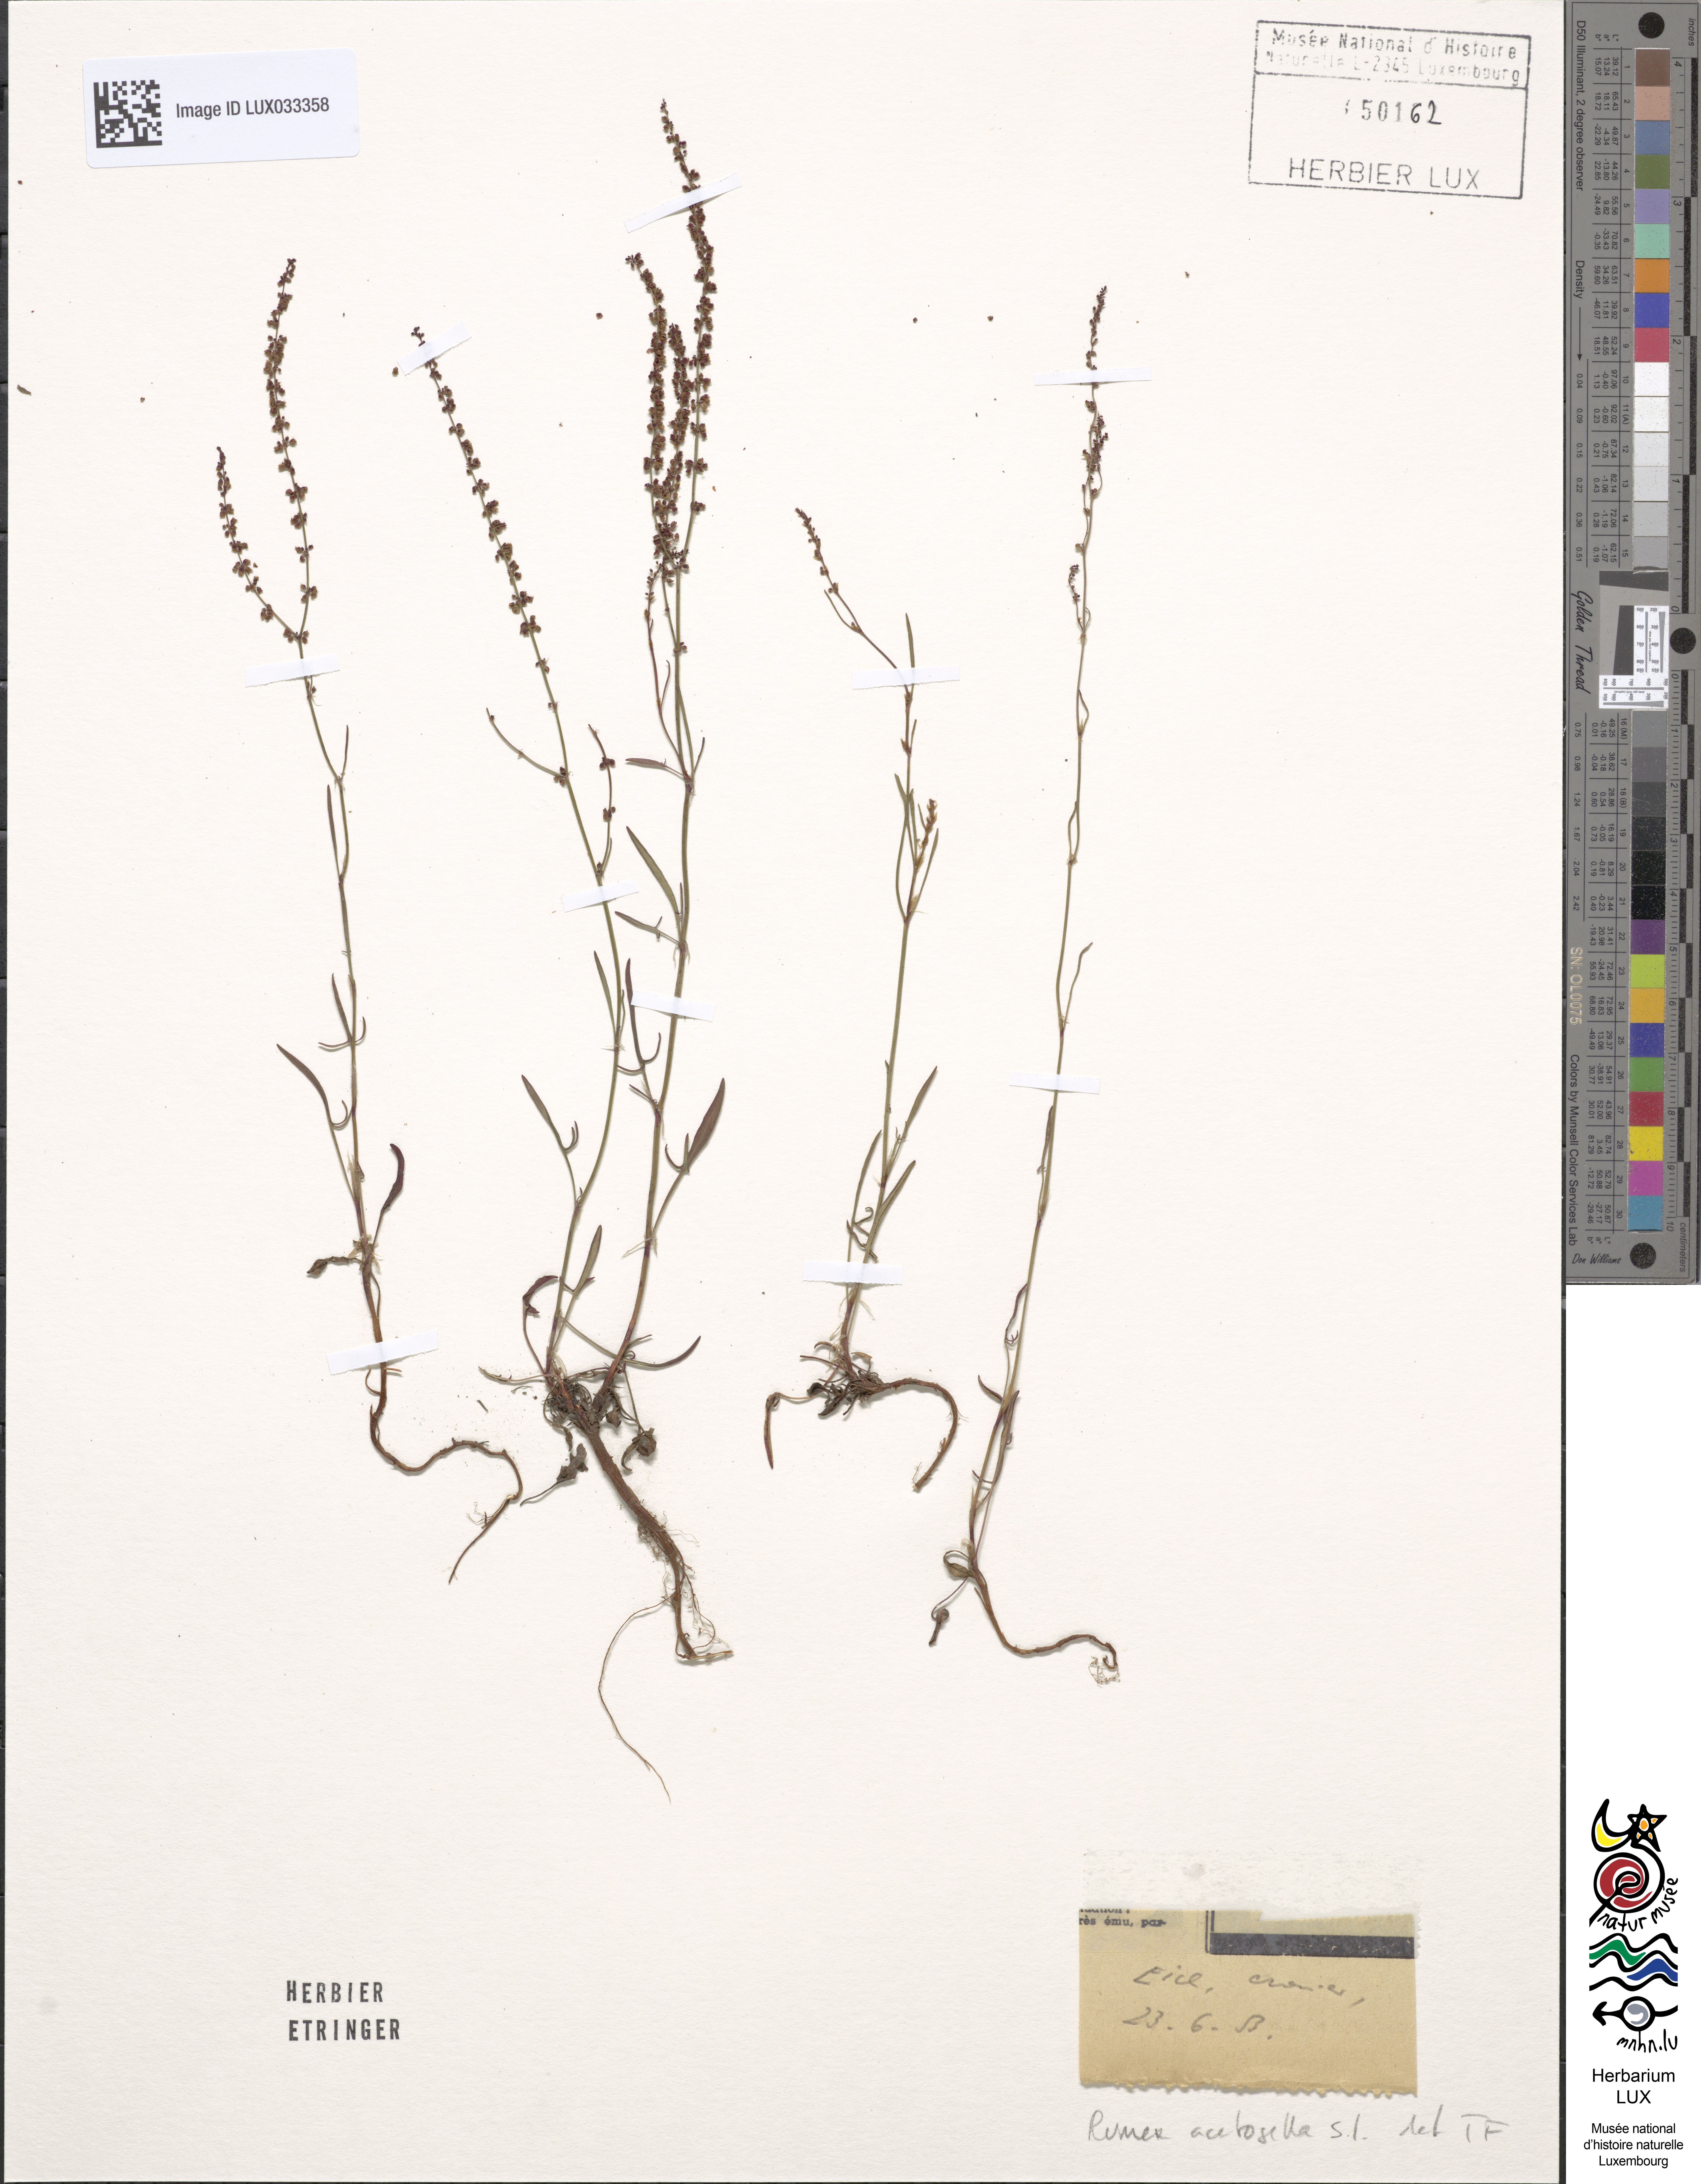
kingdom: Plantae
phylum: Tracheophyta
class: Magnoliopsida
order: Caryophyllales
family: Polygonaceae
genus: Rumex
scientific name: Rumex acetosella
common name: Common sheep sorrel
